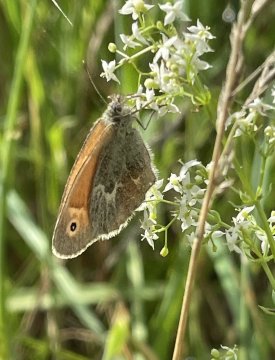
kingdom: Animalia
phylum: Arthropoda
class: Insecta
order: Lepidoptera
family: Nymphalidae
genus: Coenonympha
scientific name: Coenonympha tullia
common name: Large Heath
